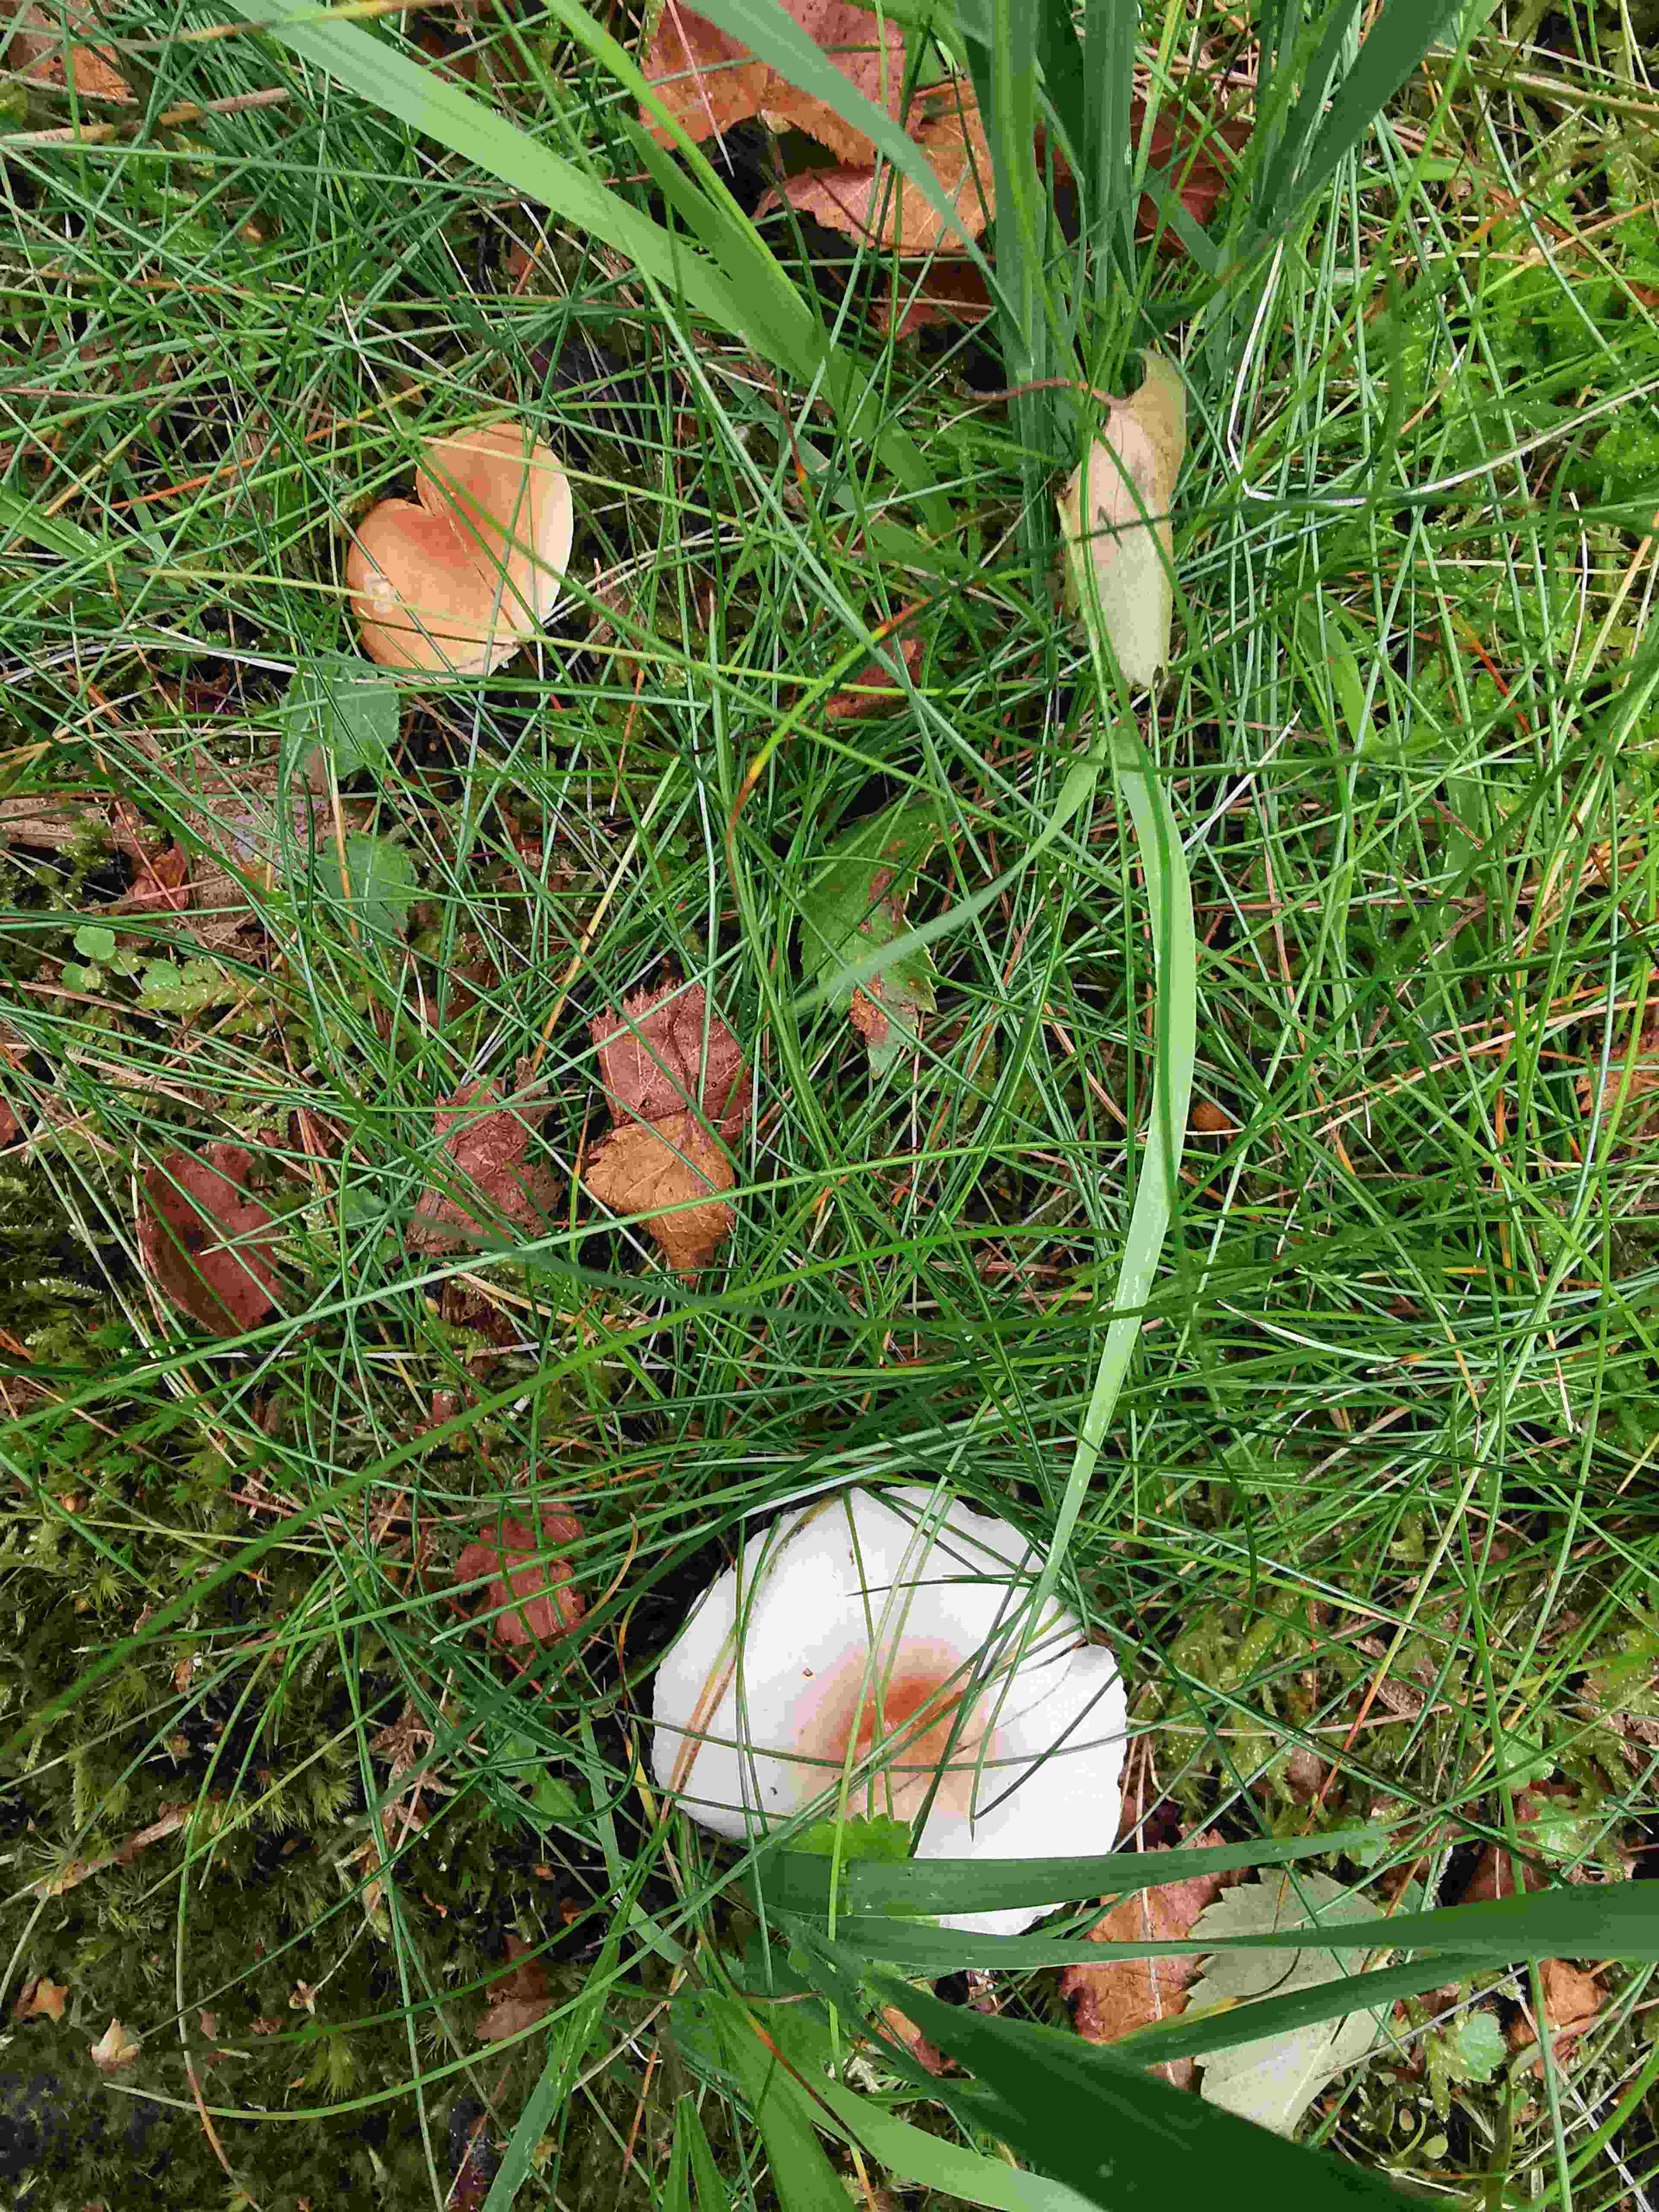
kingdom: Fungi
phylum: Basidiomycota
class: Agaricomycetes
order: Russulales
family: Russulaceae
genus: Lactarius
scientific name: Lactarius
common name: mælkehat
